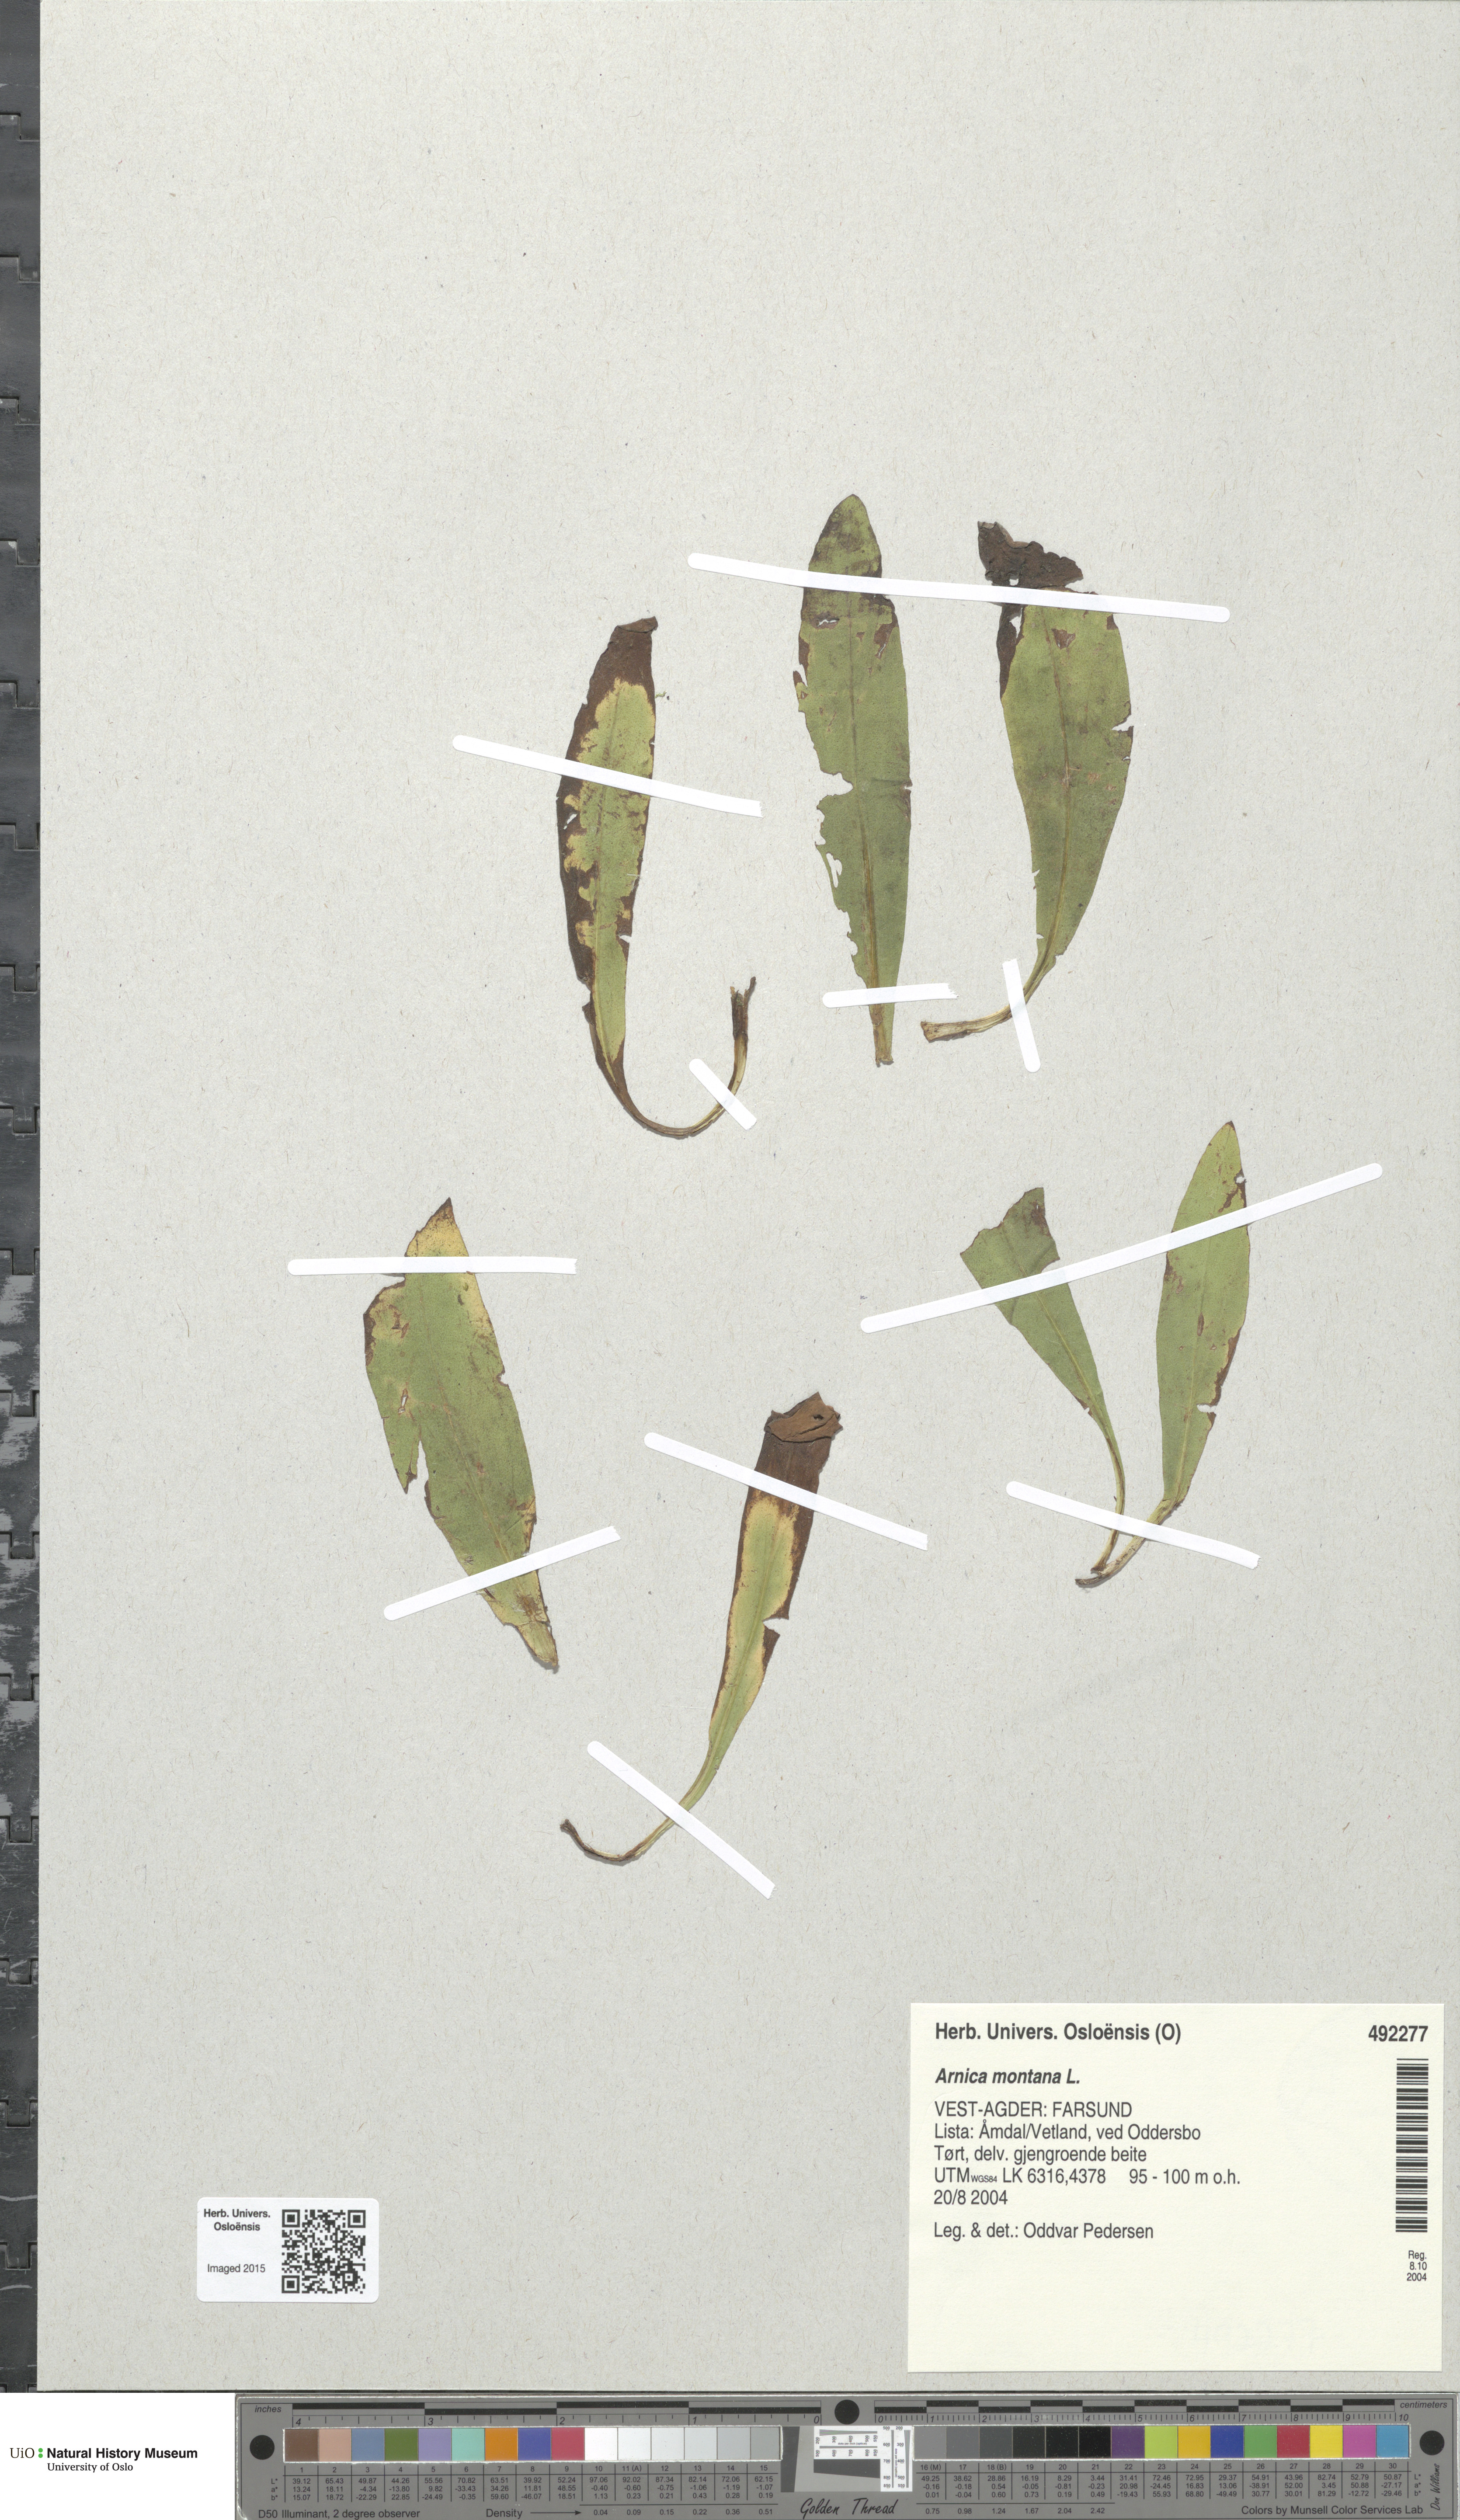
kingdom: Plantae
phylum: Tracheophyta
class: Magnoliopsida
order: Asterales
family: Asteraceae
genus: Arnica
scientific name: Arnica montana
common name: Leopard's bane
